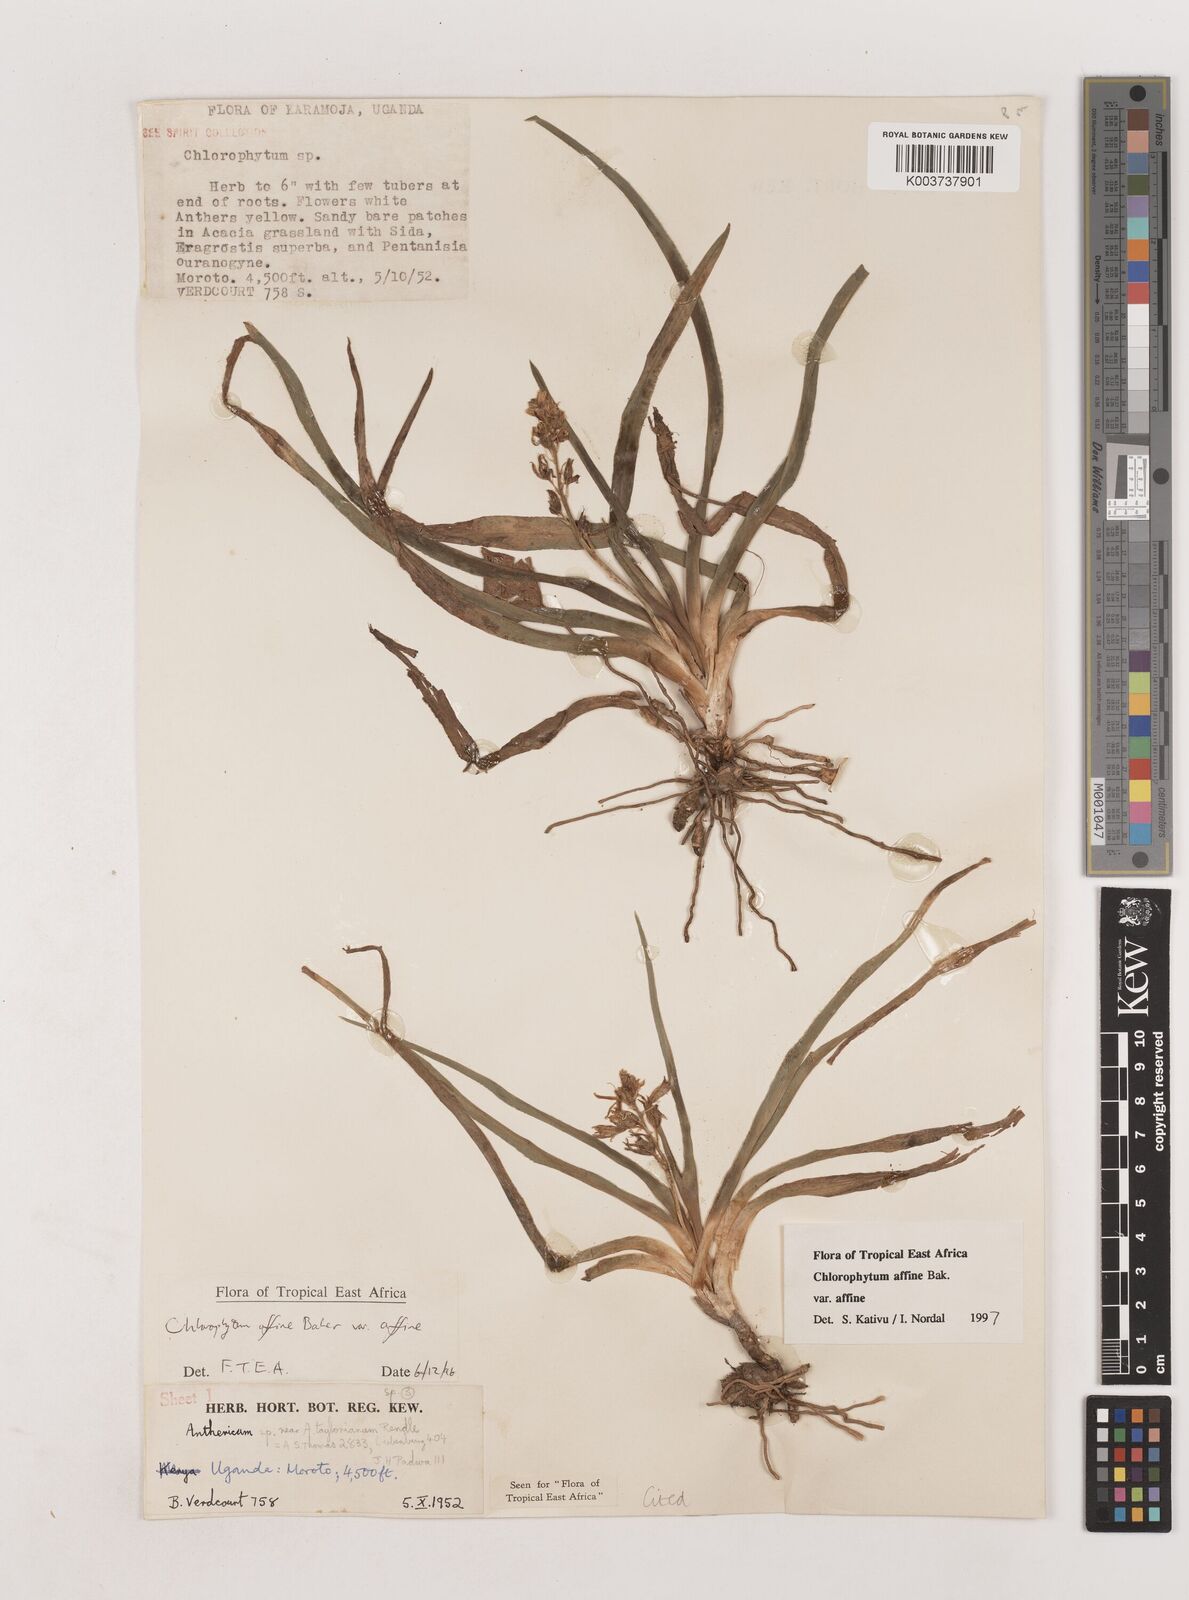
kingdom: Plantae
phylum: Tracheophyta
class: Liliopsida
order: Asparagales
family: Asparagaceae
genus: Chlorophytum
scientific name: Chlorophytum affine
